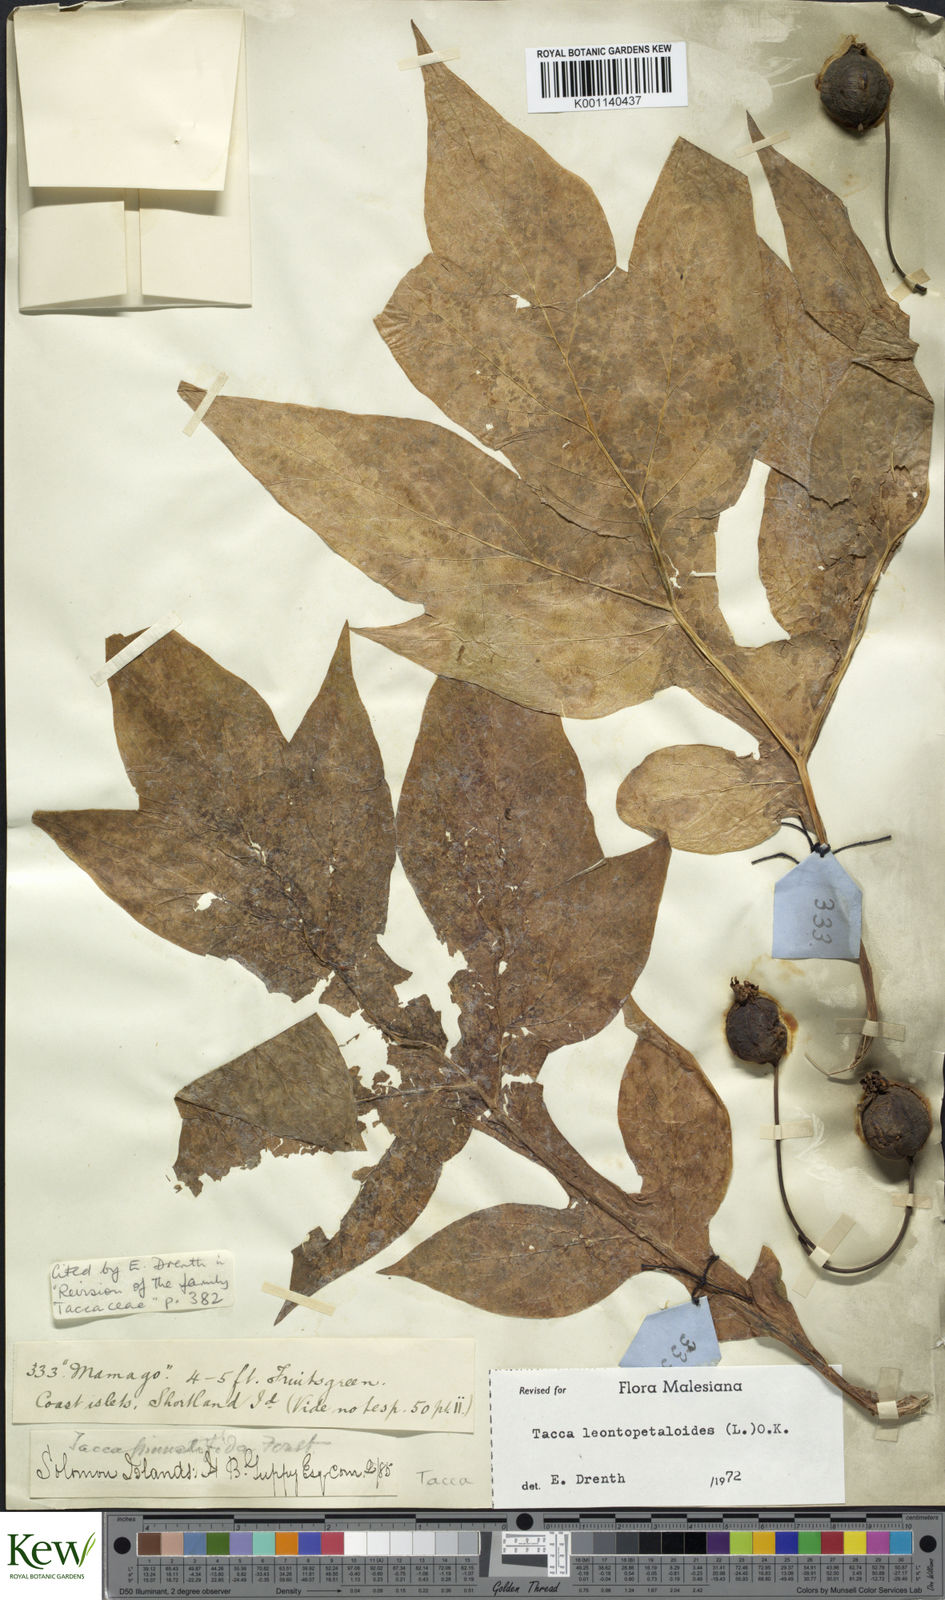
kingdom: Plantae
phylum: Tracheophyta
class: Liliopsida
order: Dioscoreales
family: Dioscoreaceae
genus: Tacca
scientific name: Tacca leontopetaloides
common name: Arrowroot
